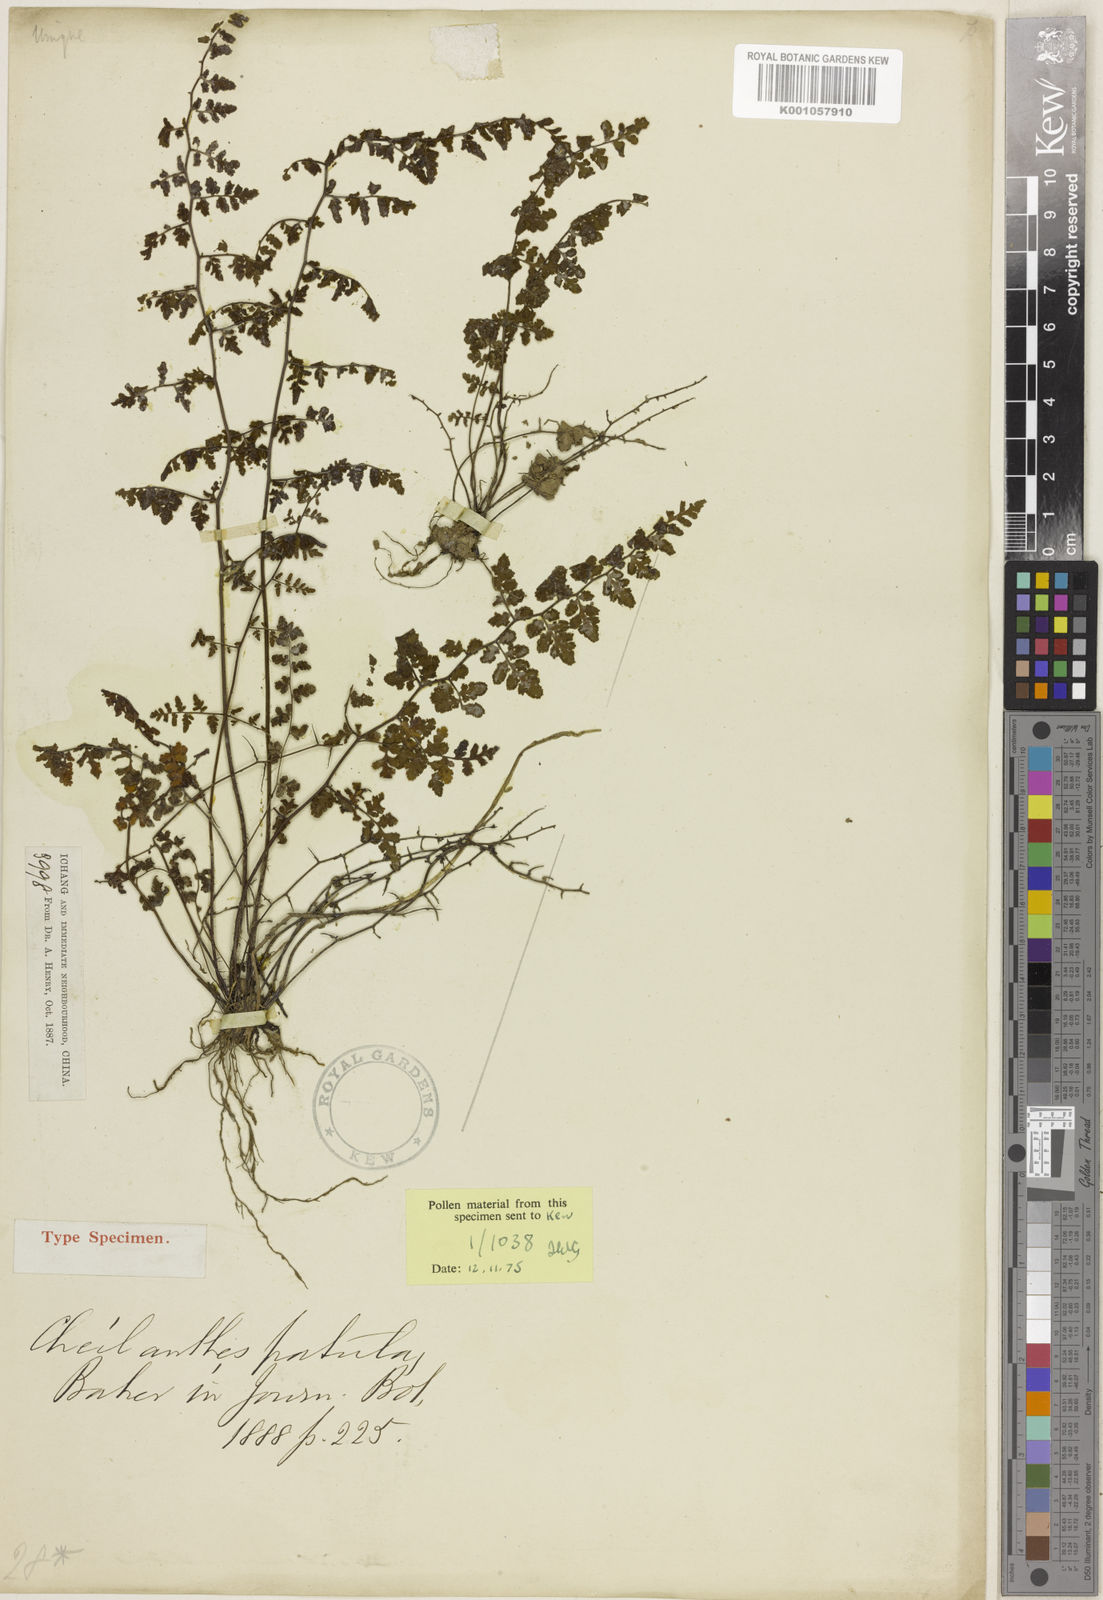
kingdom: Plantae
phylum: Tracheophyta
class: Polypodiopsida
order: Polypodiales
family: Pteridaceae
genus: Oeosporangium
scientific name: Oeosporangium patulum
